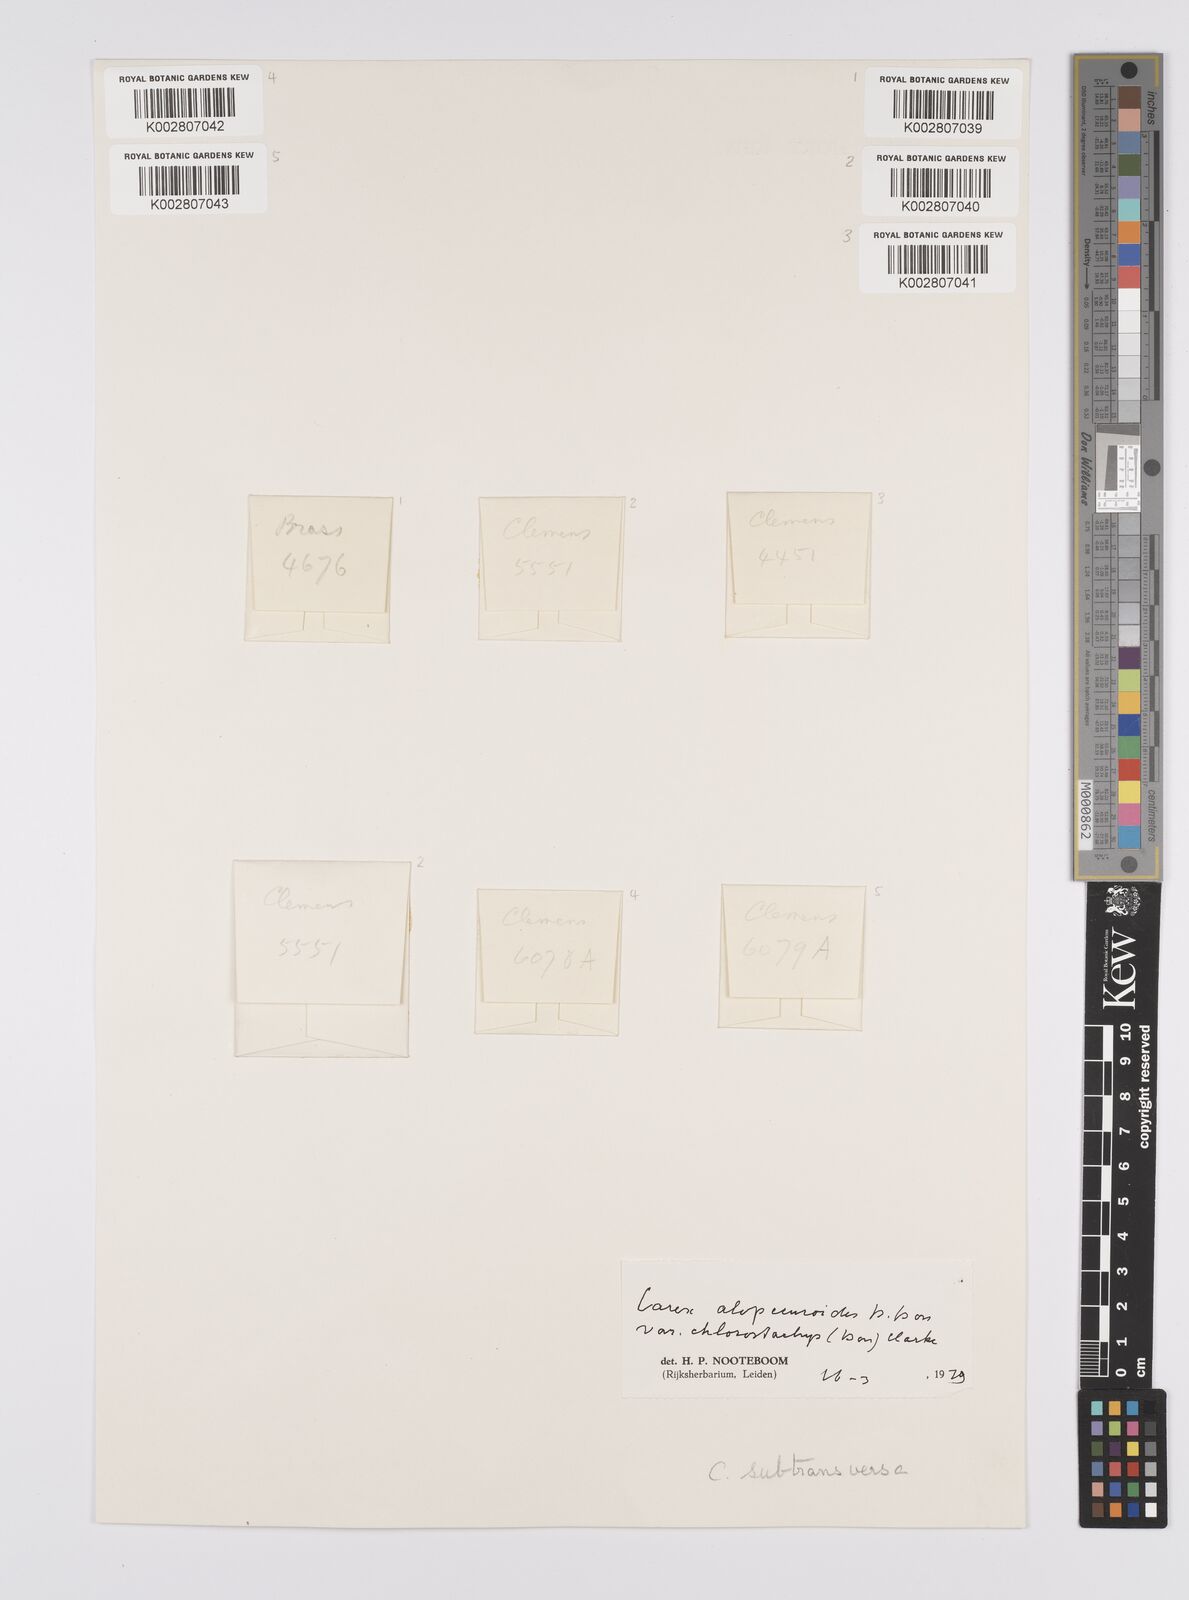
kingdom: Plantae
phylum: Tracheophyta
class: Liliopsida
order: Poales
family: Cyperaceae
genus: Carex
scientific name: Carex alopecuroides
